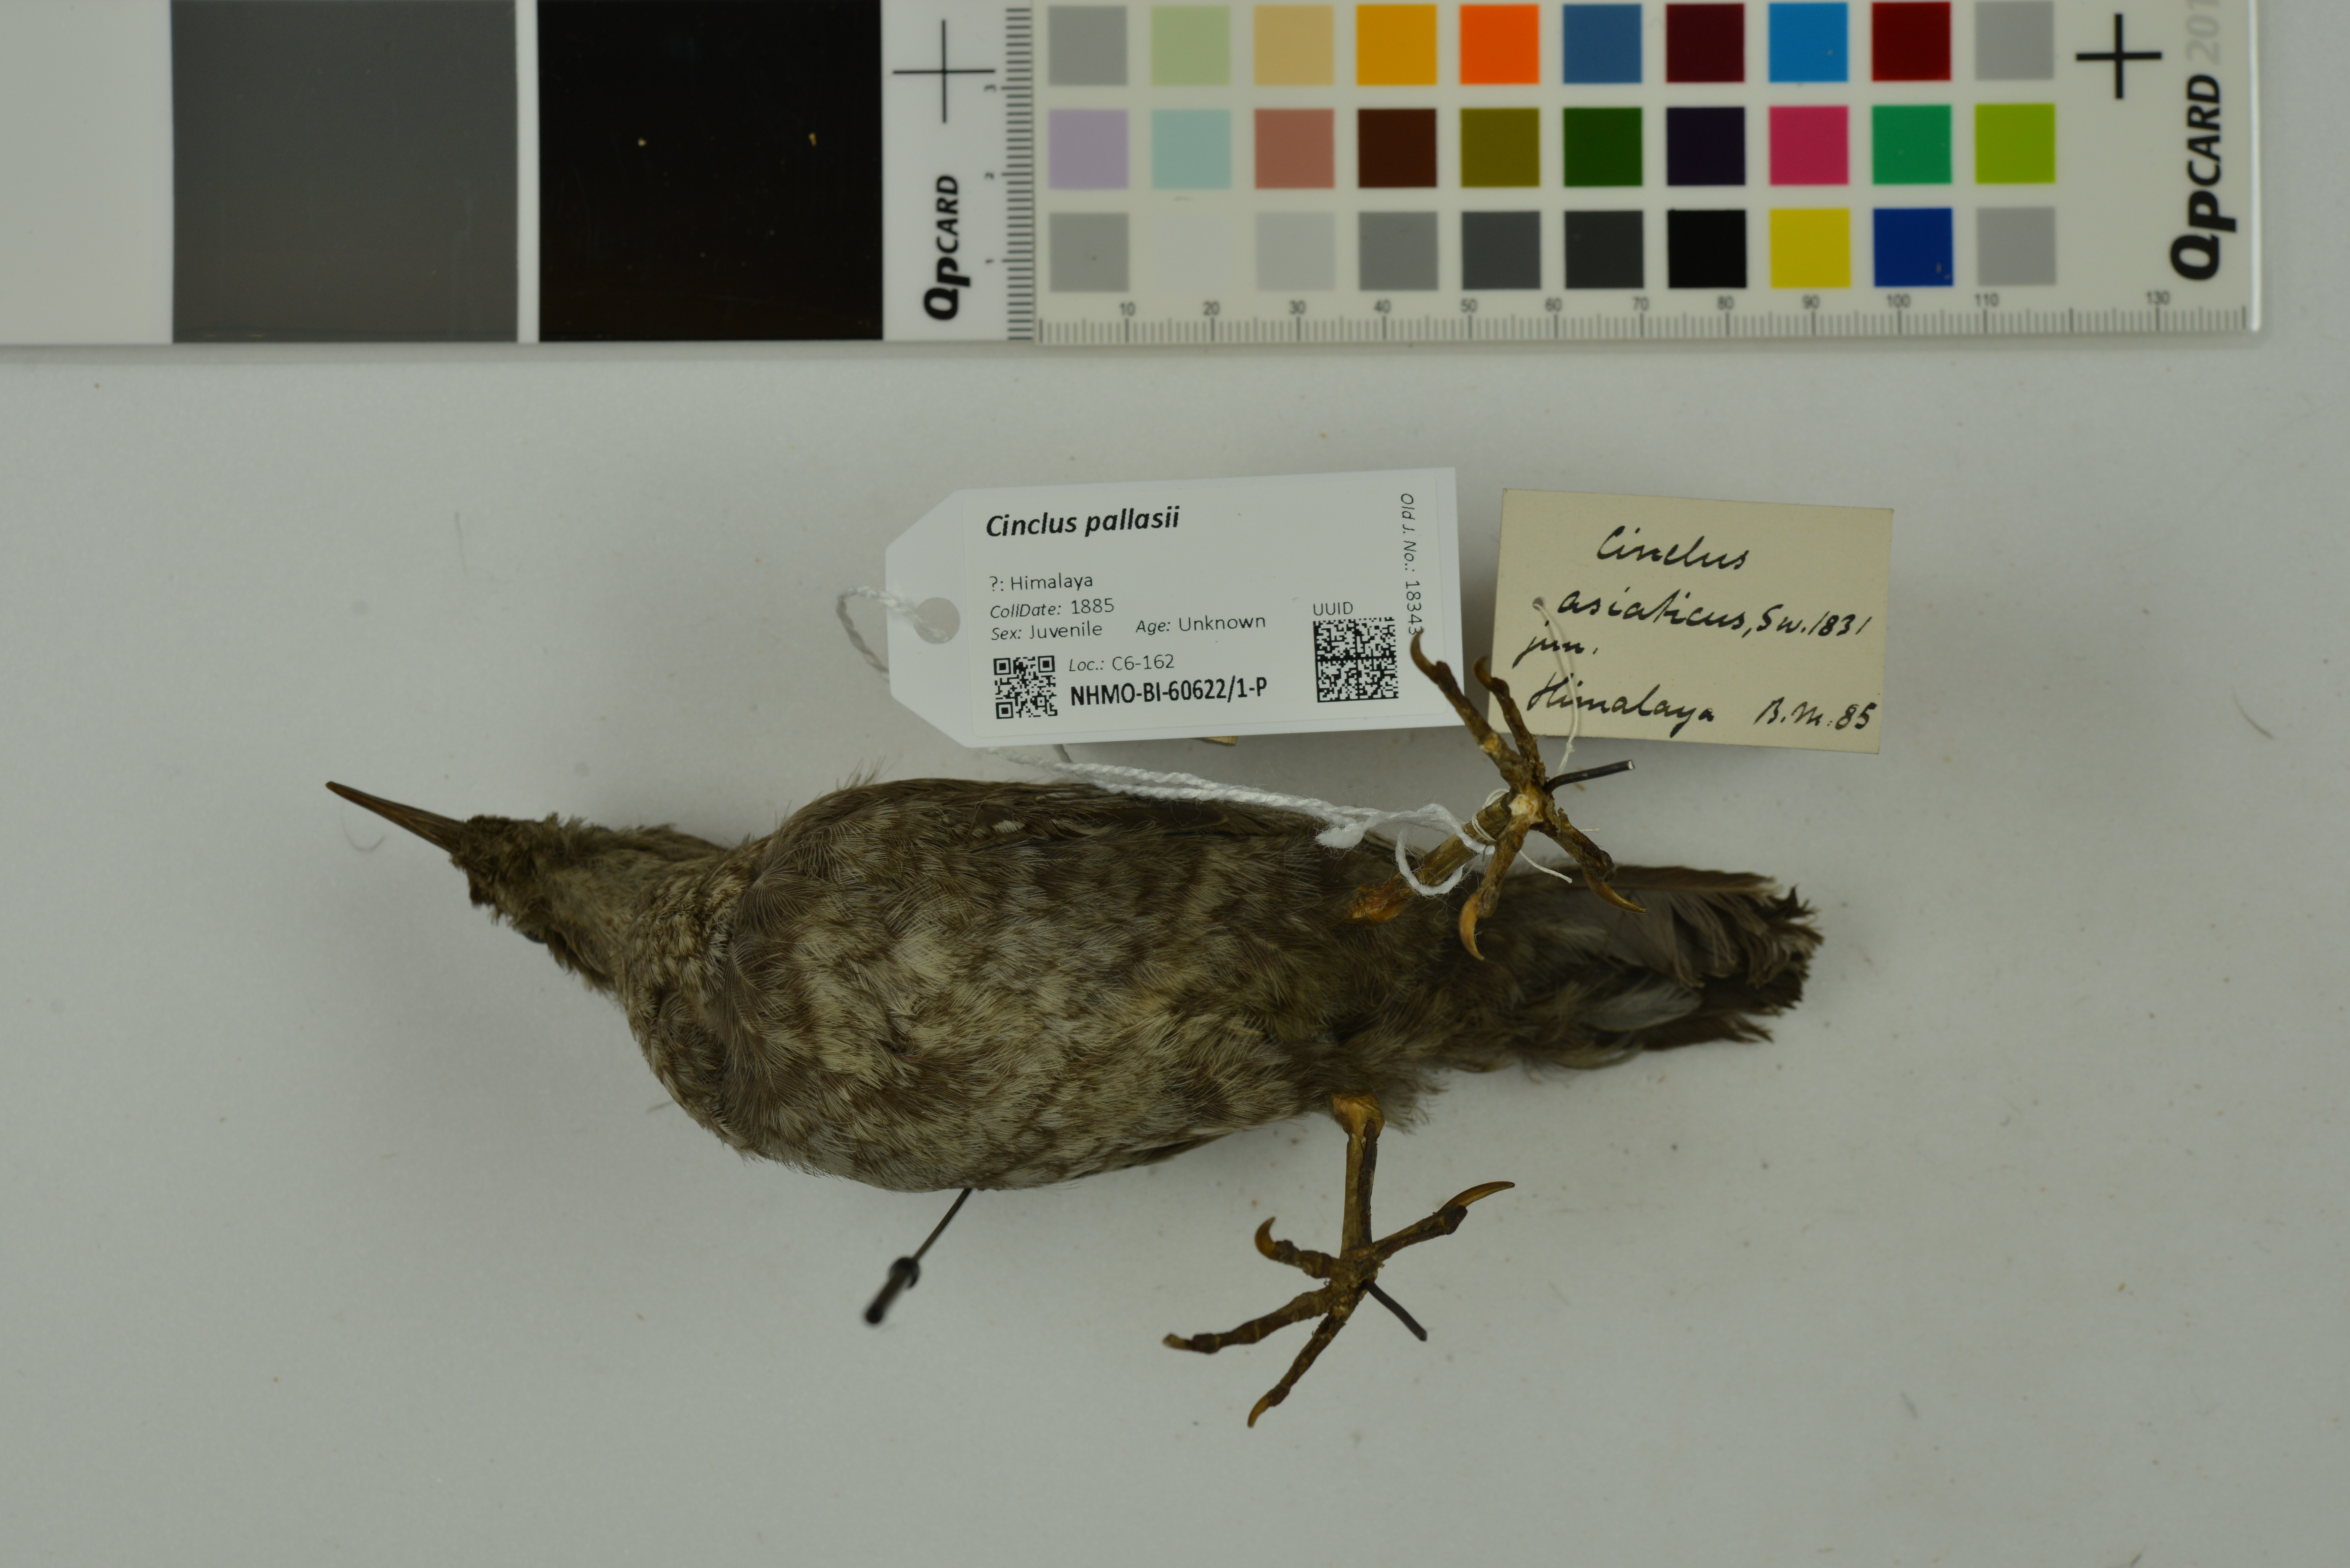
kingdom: Animalia
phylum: Chordata
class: Aves
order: Passeriformes
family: Cinclidae
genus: Cinclus
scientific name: Cinclus pallasii
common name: Brown dipper
